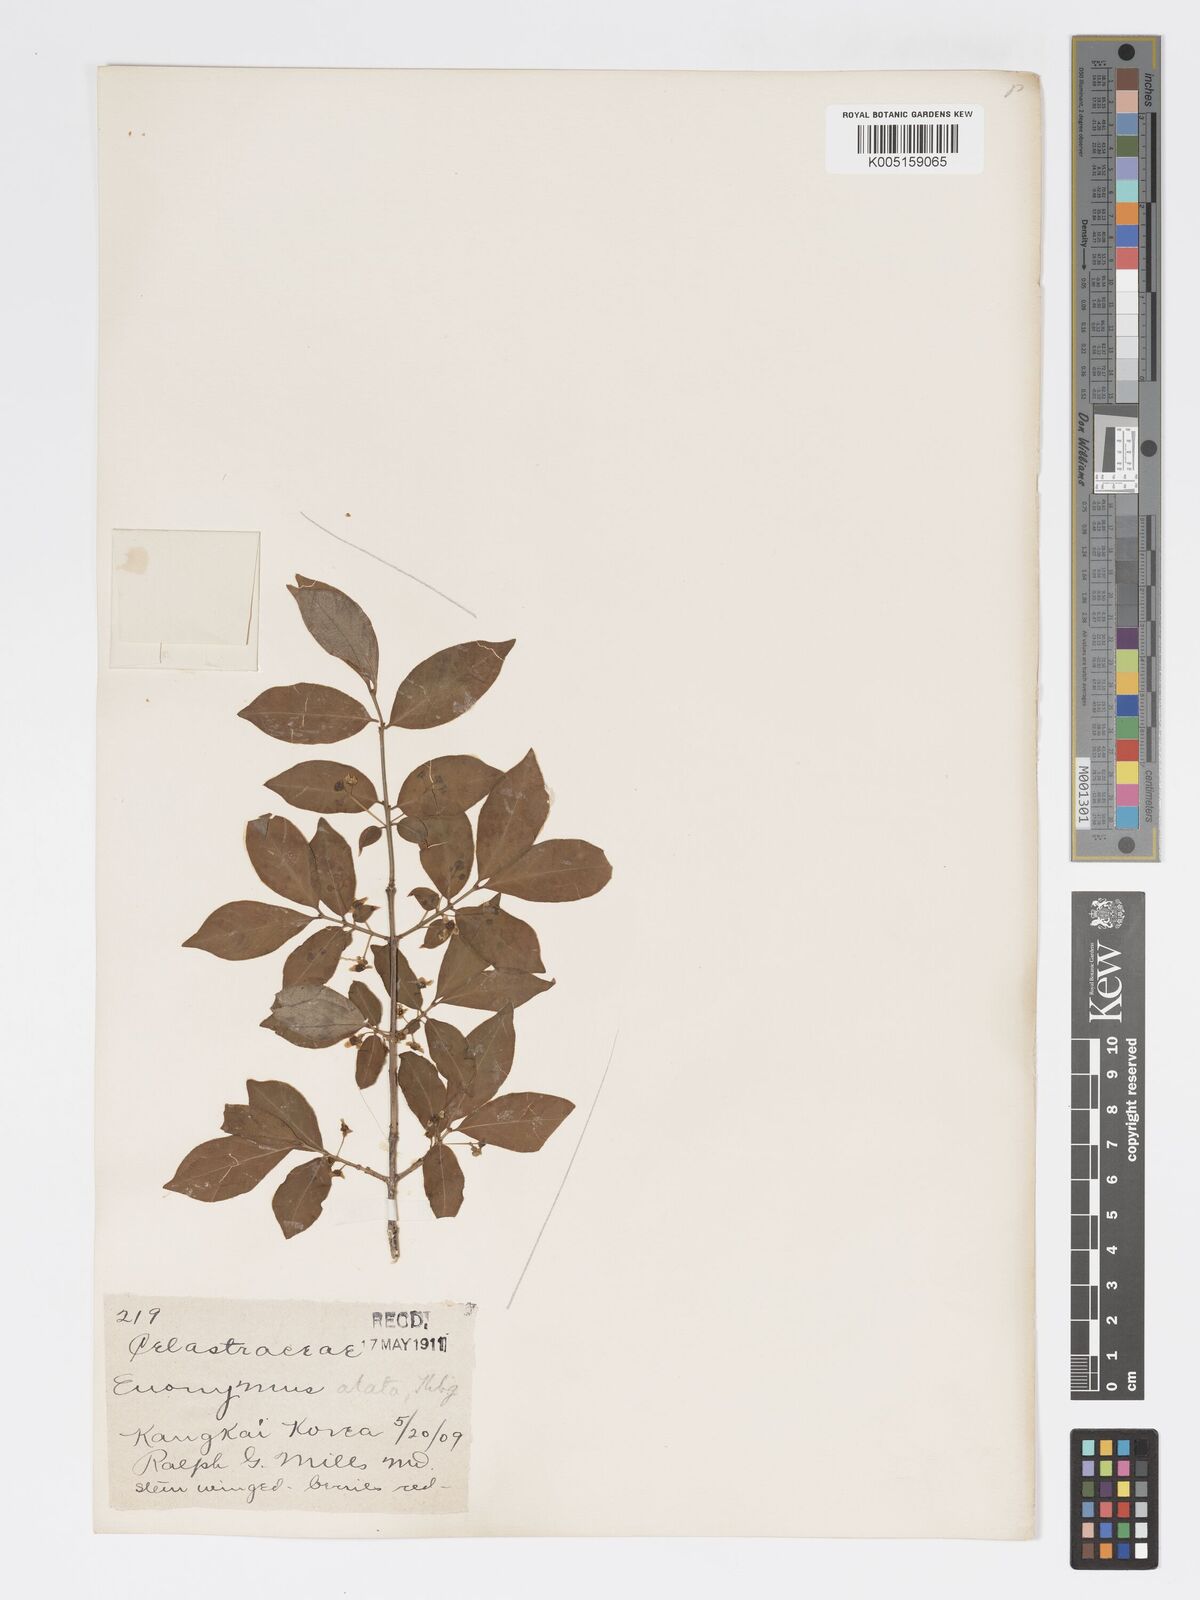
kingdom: Plantae
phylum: Tracheophyta
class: Magnoliopsida
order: Celastrales
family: Celastraceae
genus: Euonymus
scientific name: Euonymus
